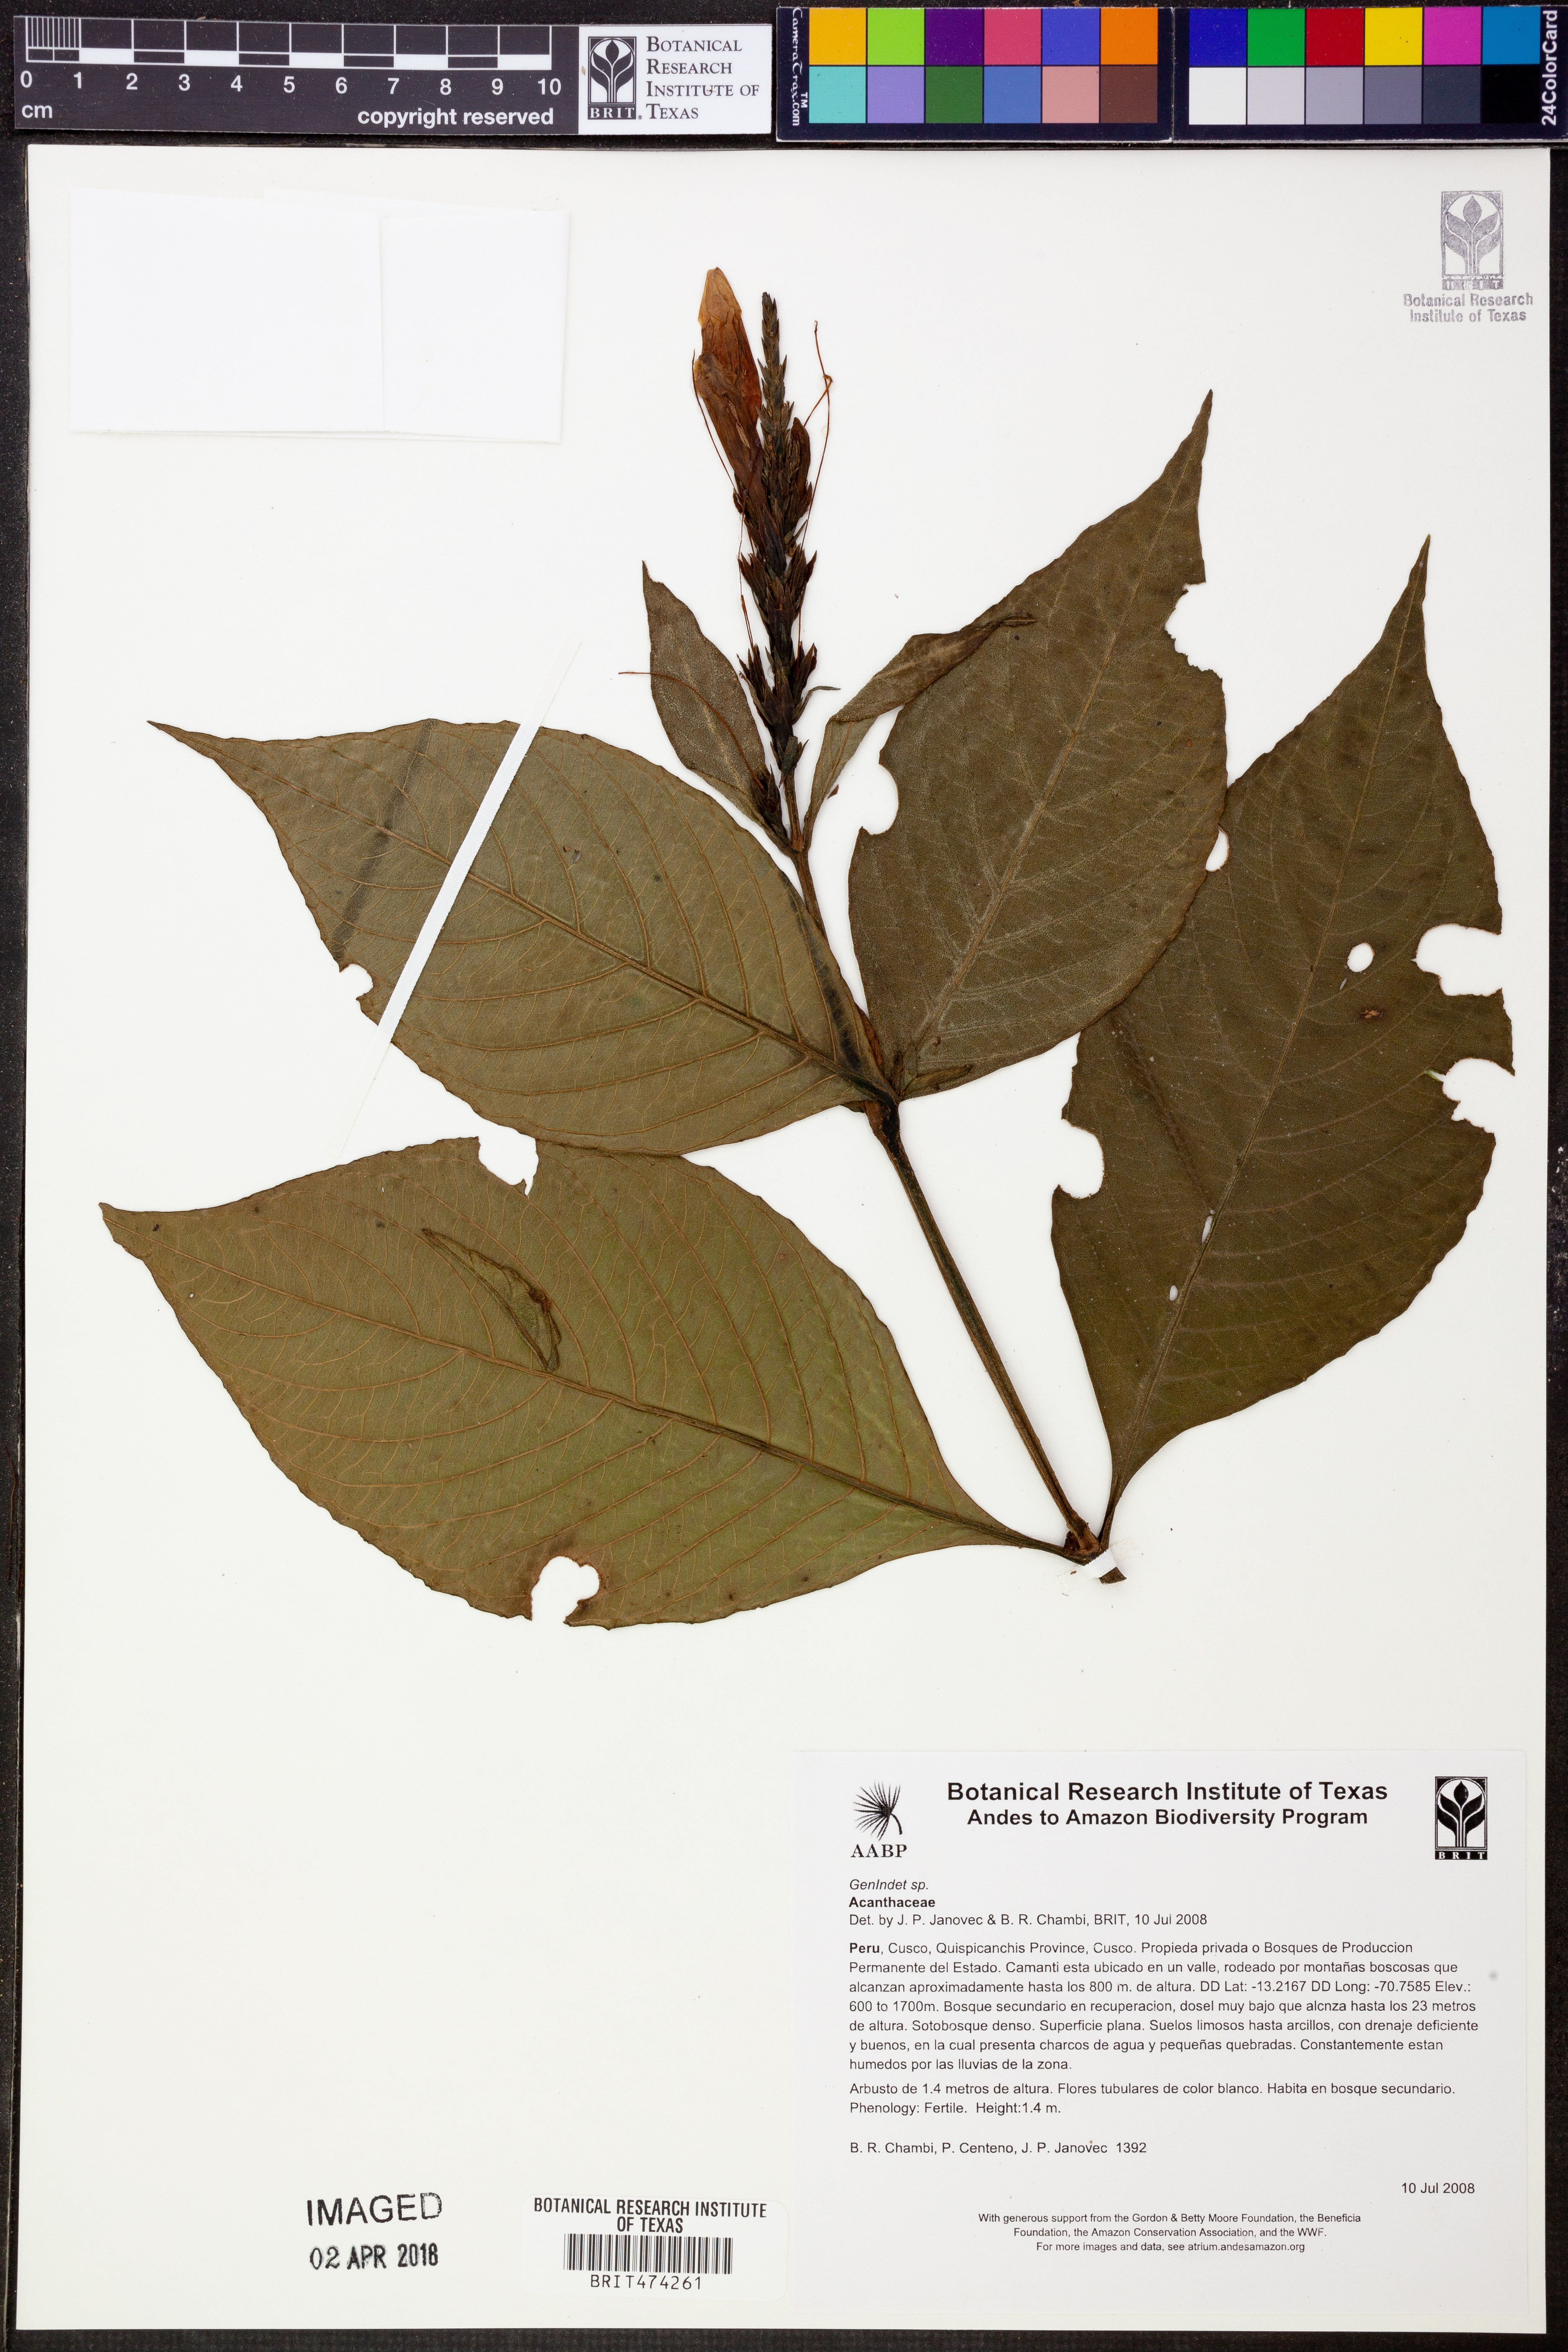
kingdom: Plantae
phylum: Tracheophyta
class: Magnoliopsida
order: Lamiales
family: Acanthaceae
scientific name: Acanthaceae
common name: Acanthaceae
